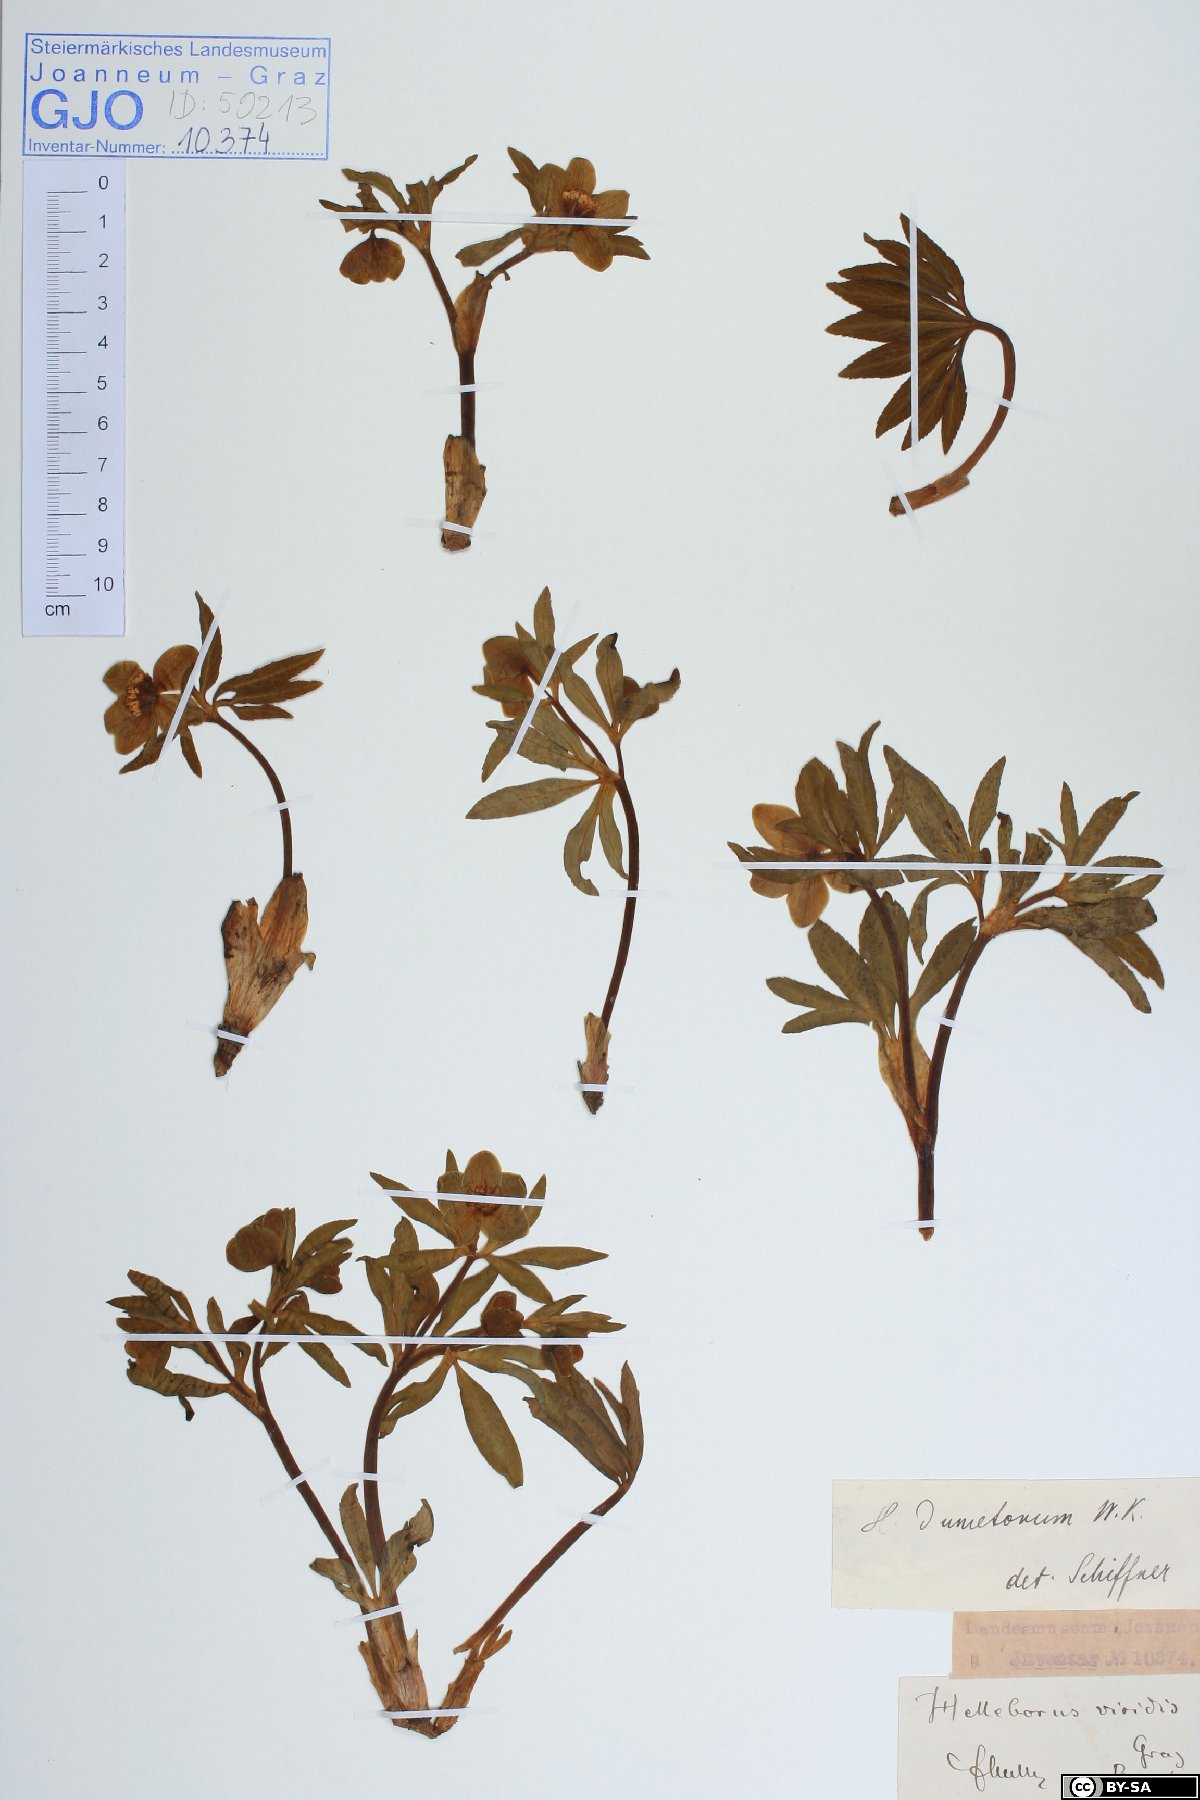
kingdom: Plantae
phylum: Tracheophyta
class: Magnoliopsida
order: Ranunculales
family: Ranunculaceae
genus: Helleborus
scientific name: Helleborus dumetorum
